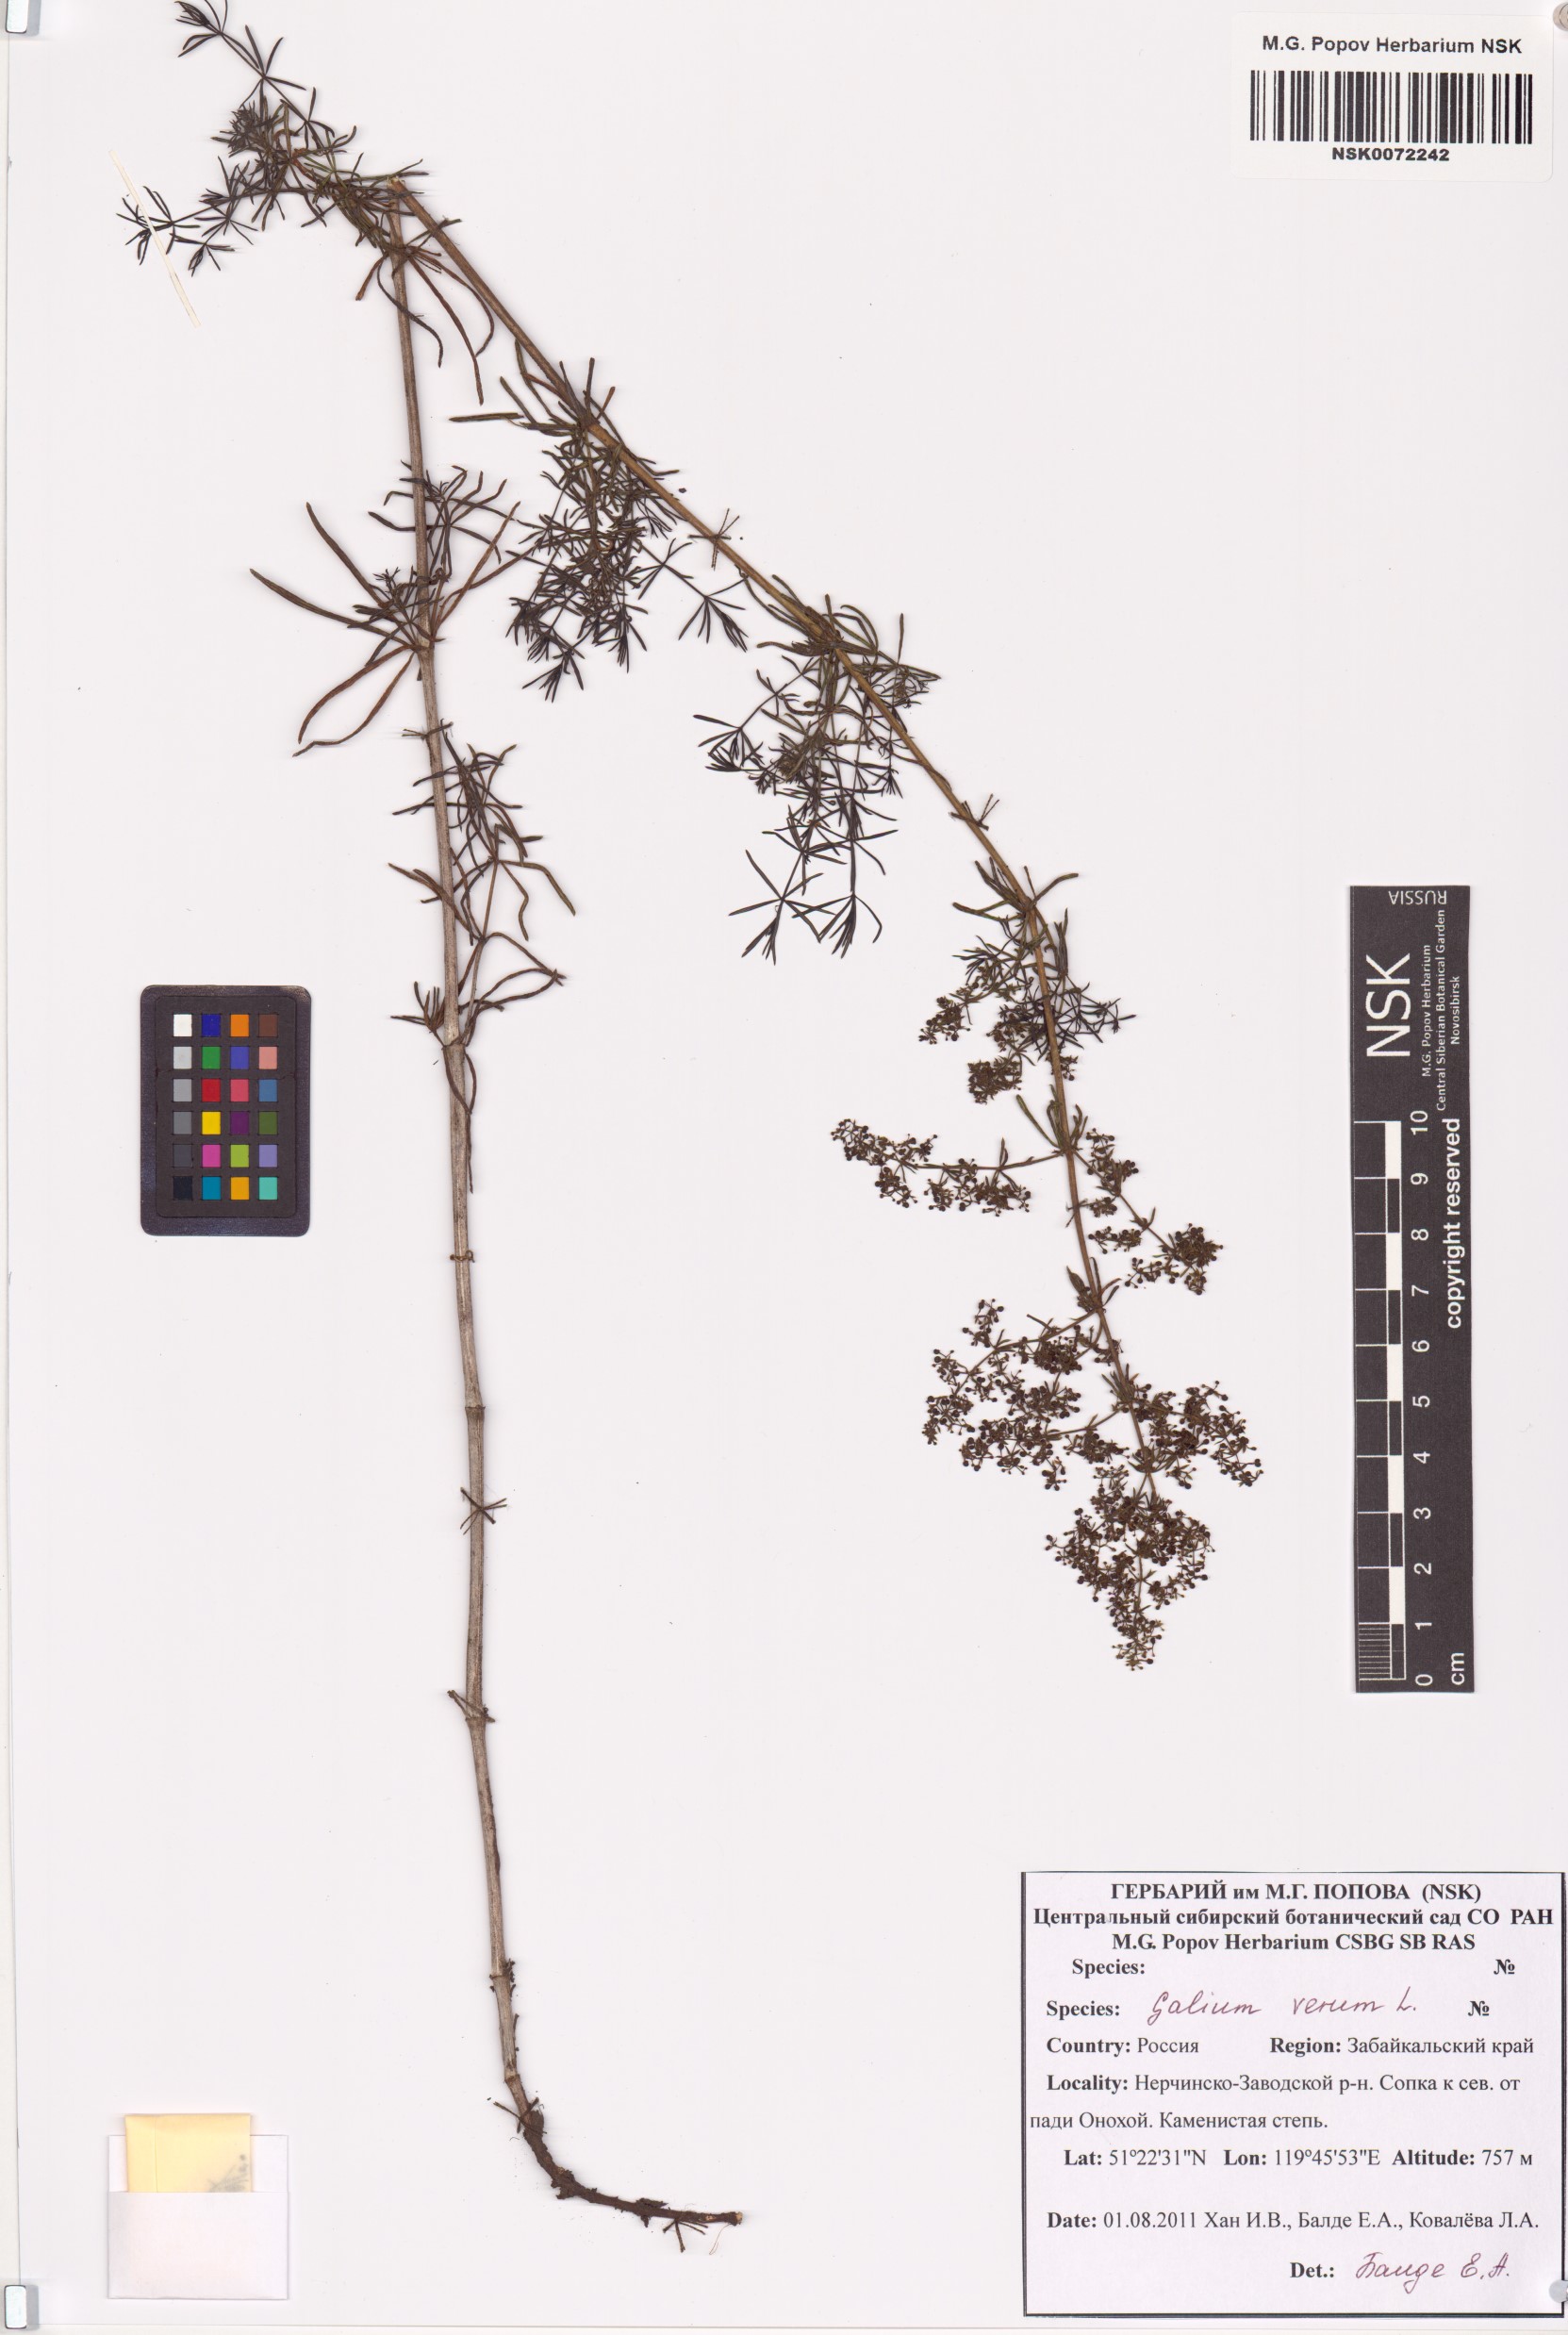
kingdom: Plantae
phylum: Tracheophyta
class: Magnoliopsida
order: Gentianales
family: Rubiaceae
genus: Galium
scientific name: Galium verum
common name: Lady's bedstraw
